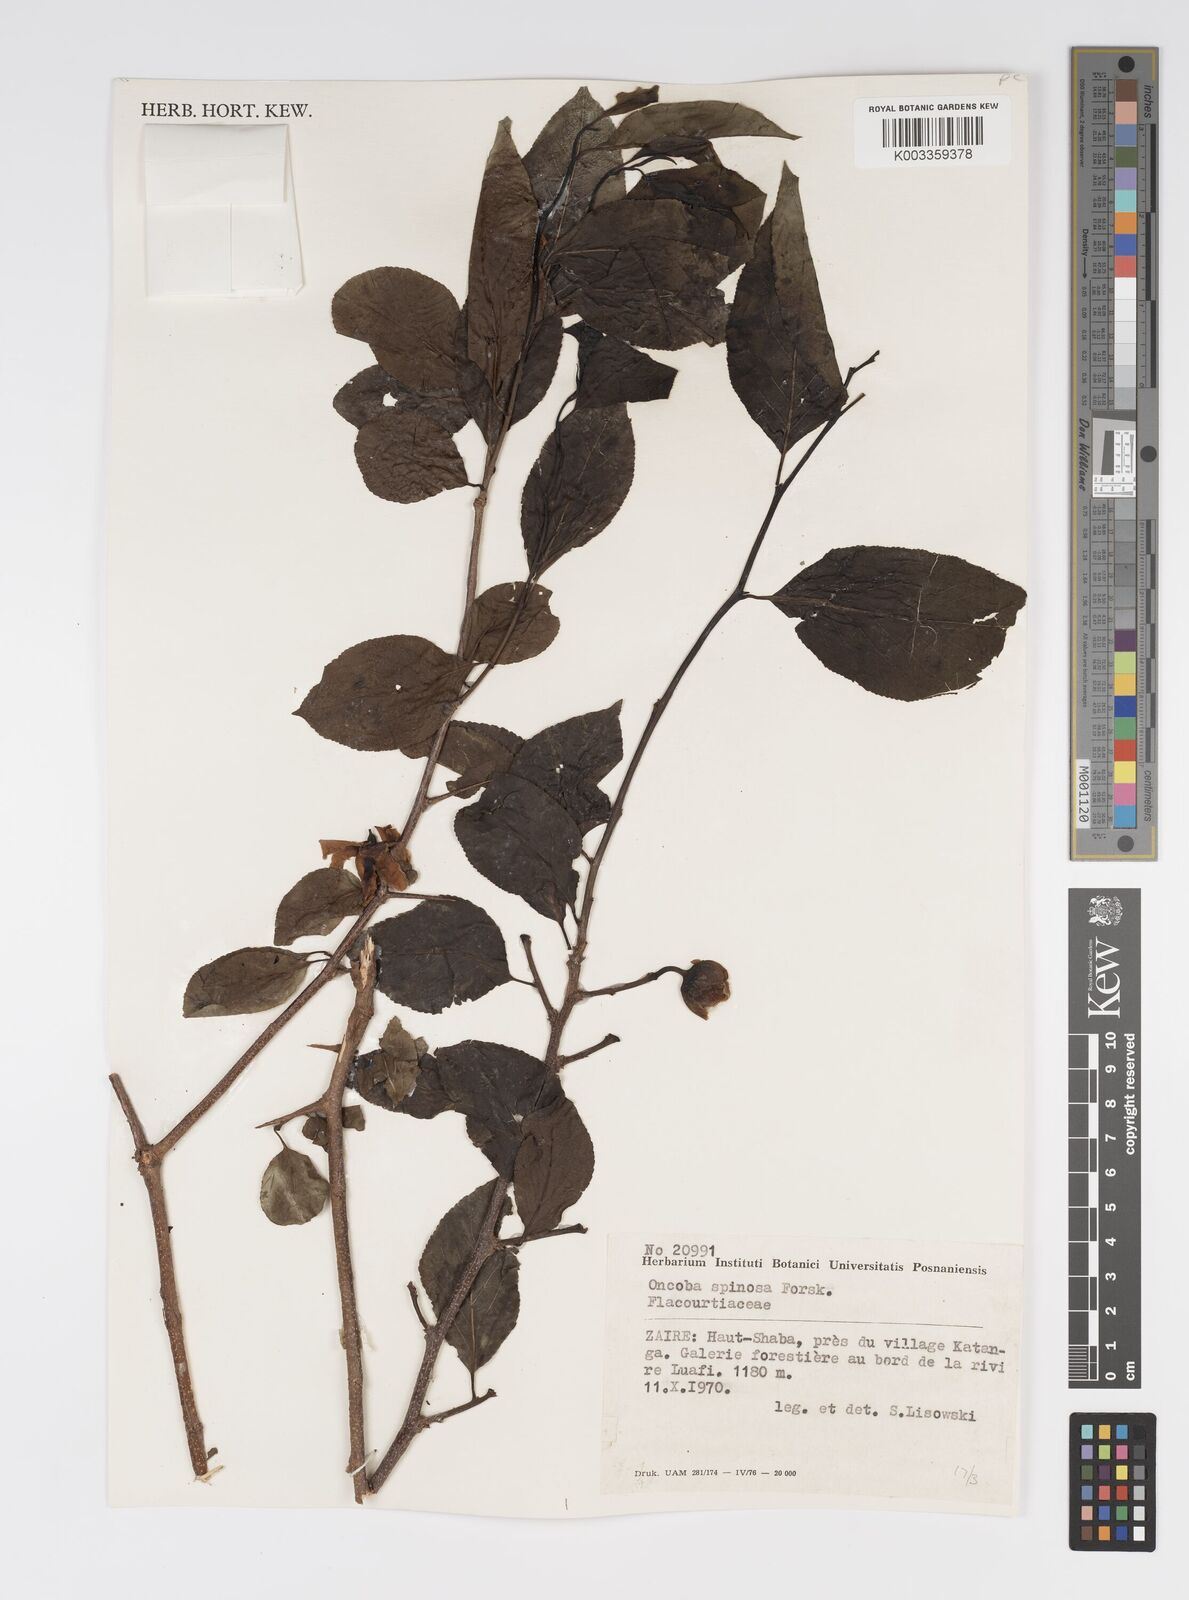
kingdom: Plantae
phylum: Tracheophyta
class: Magnoliopsida
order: Malpighiales
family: Salicaceae
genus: Oncoba
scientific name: Oncoba spinosa
